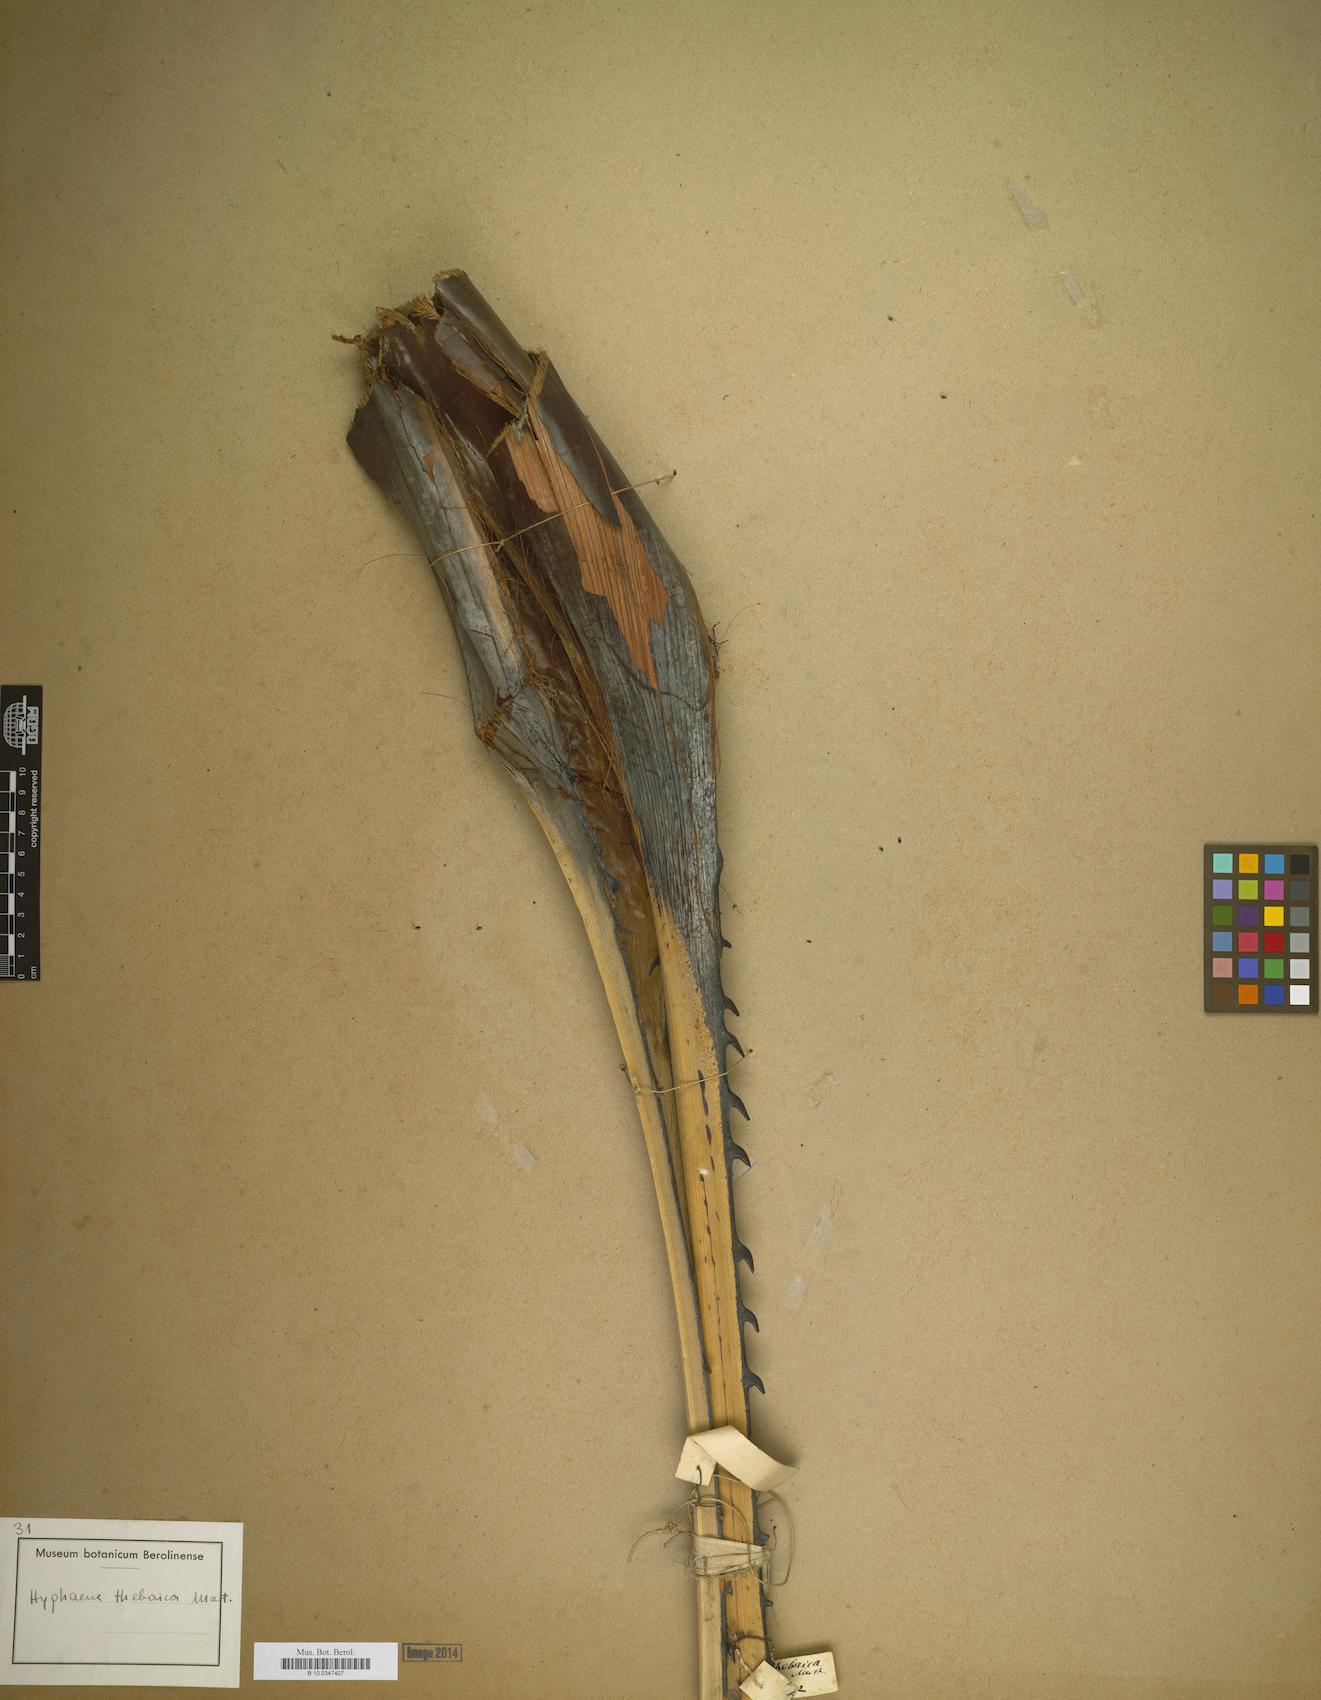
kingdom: Plantae
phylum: Tracheophyta
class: Liliopsida
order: Arecales
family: Arecaceae
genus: Hyphaene
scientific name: Hyphaene thebaica
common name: Doum palm
